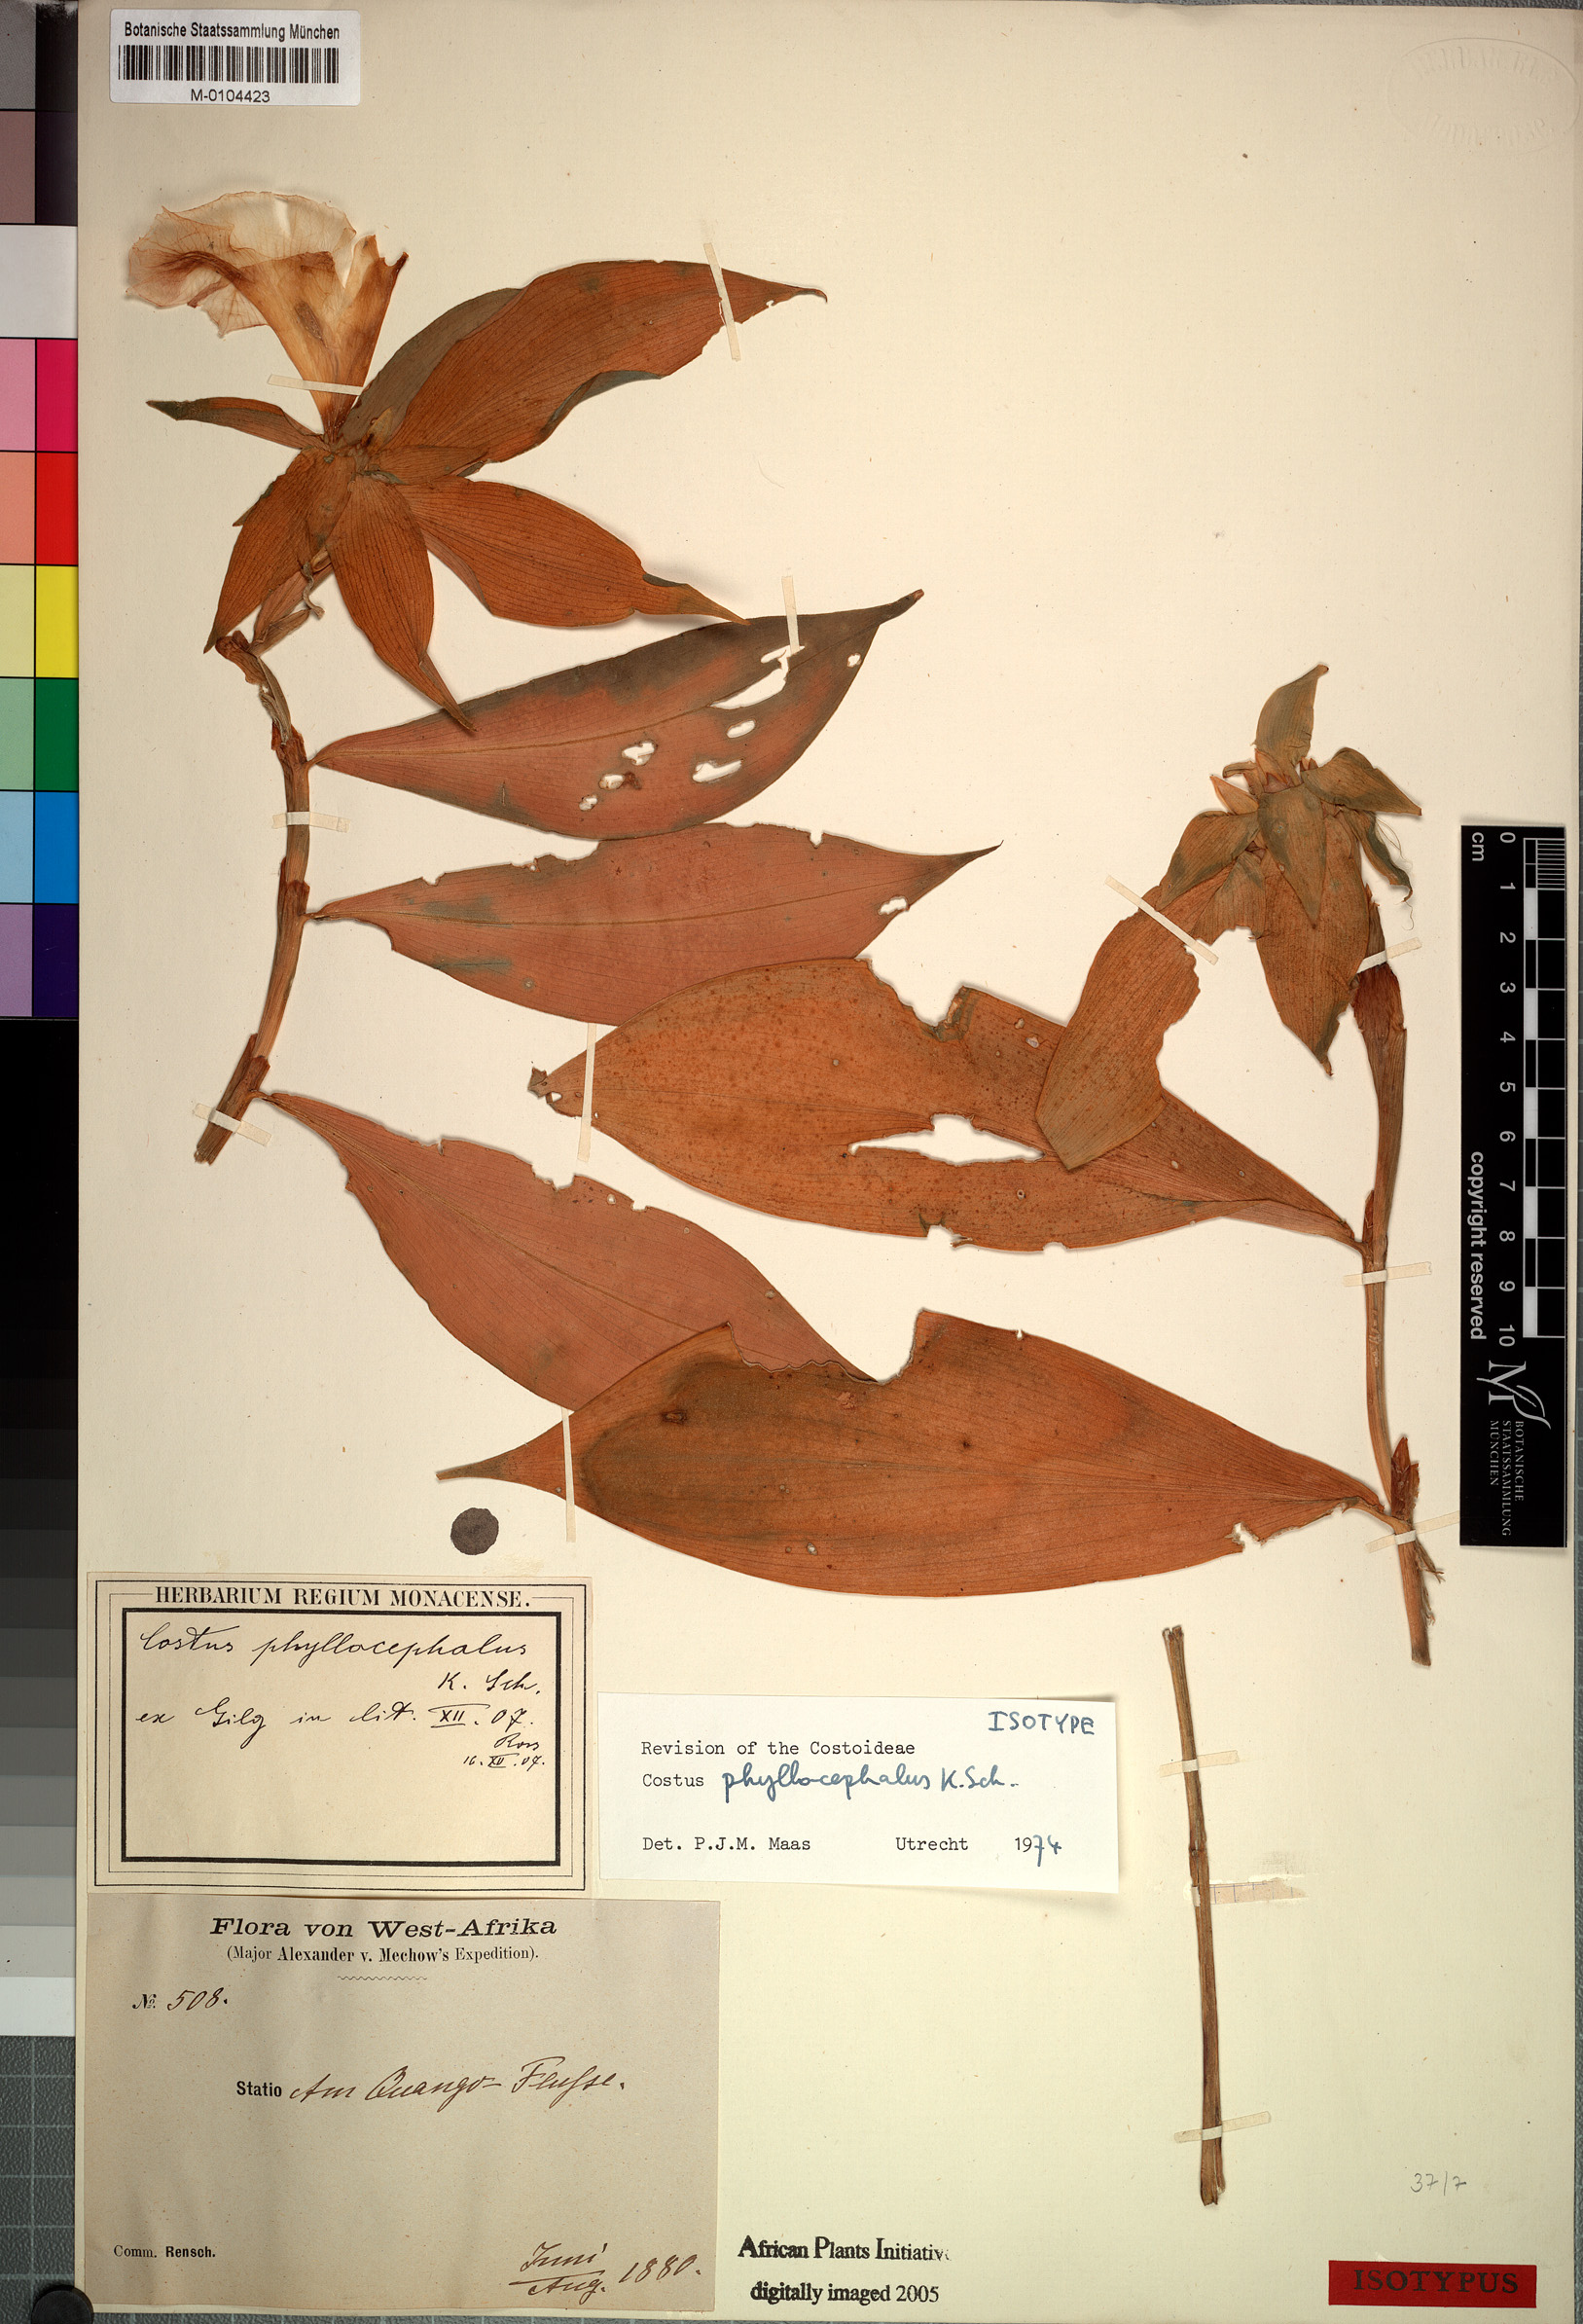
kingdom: Plantae
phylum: Tracheophyta
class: Liliopsida
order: Zingiberales
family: Costaceae
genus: Costus
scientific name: Costus phyllocephalus
